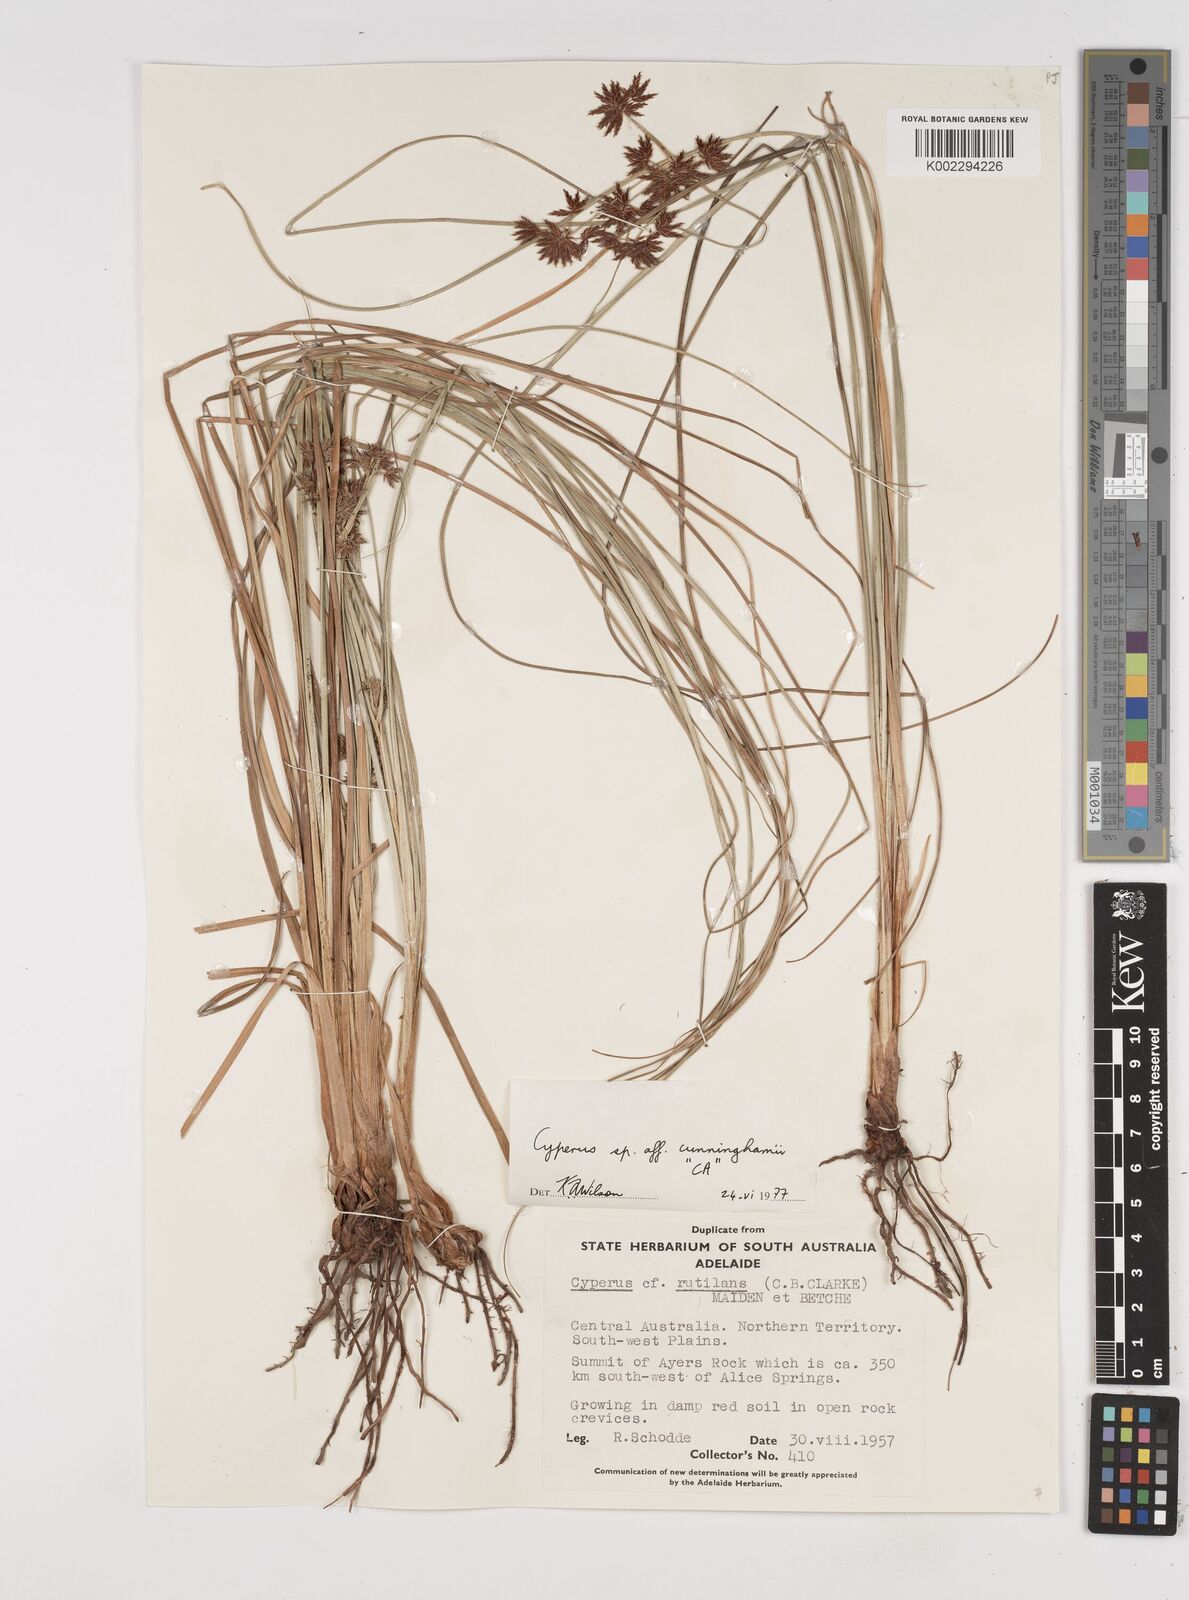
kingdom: Plantae
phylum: Tracheophyta
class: Liliopsida
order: Poales
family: Cyperaceae
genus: Cyperus
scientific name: Cyperus cunninghamii
